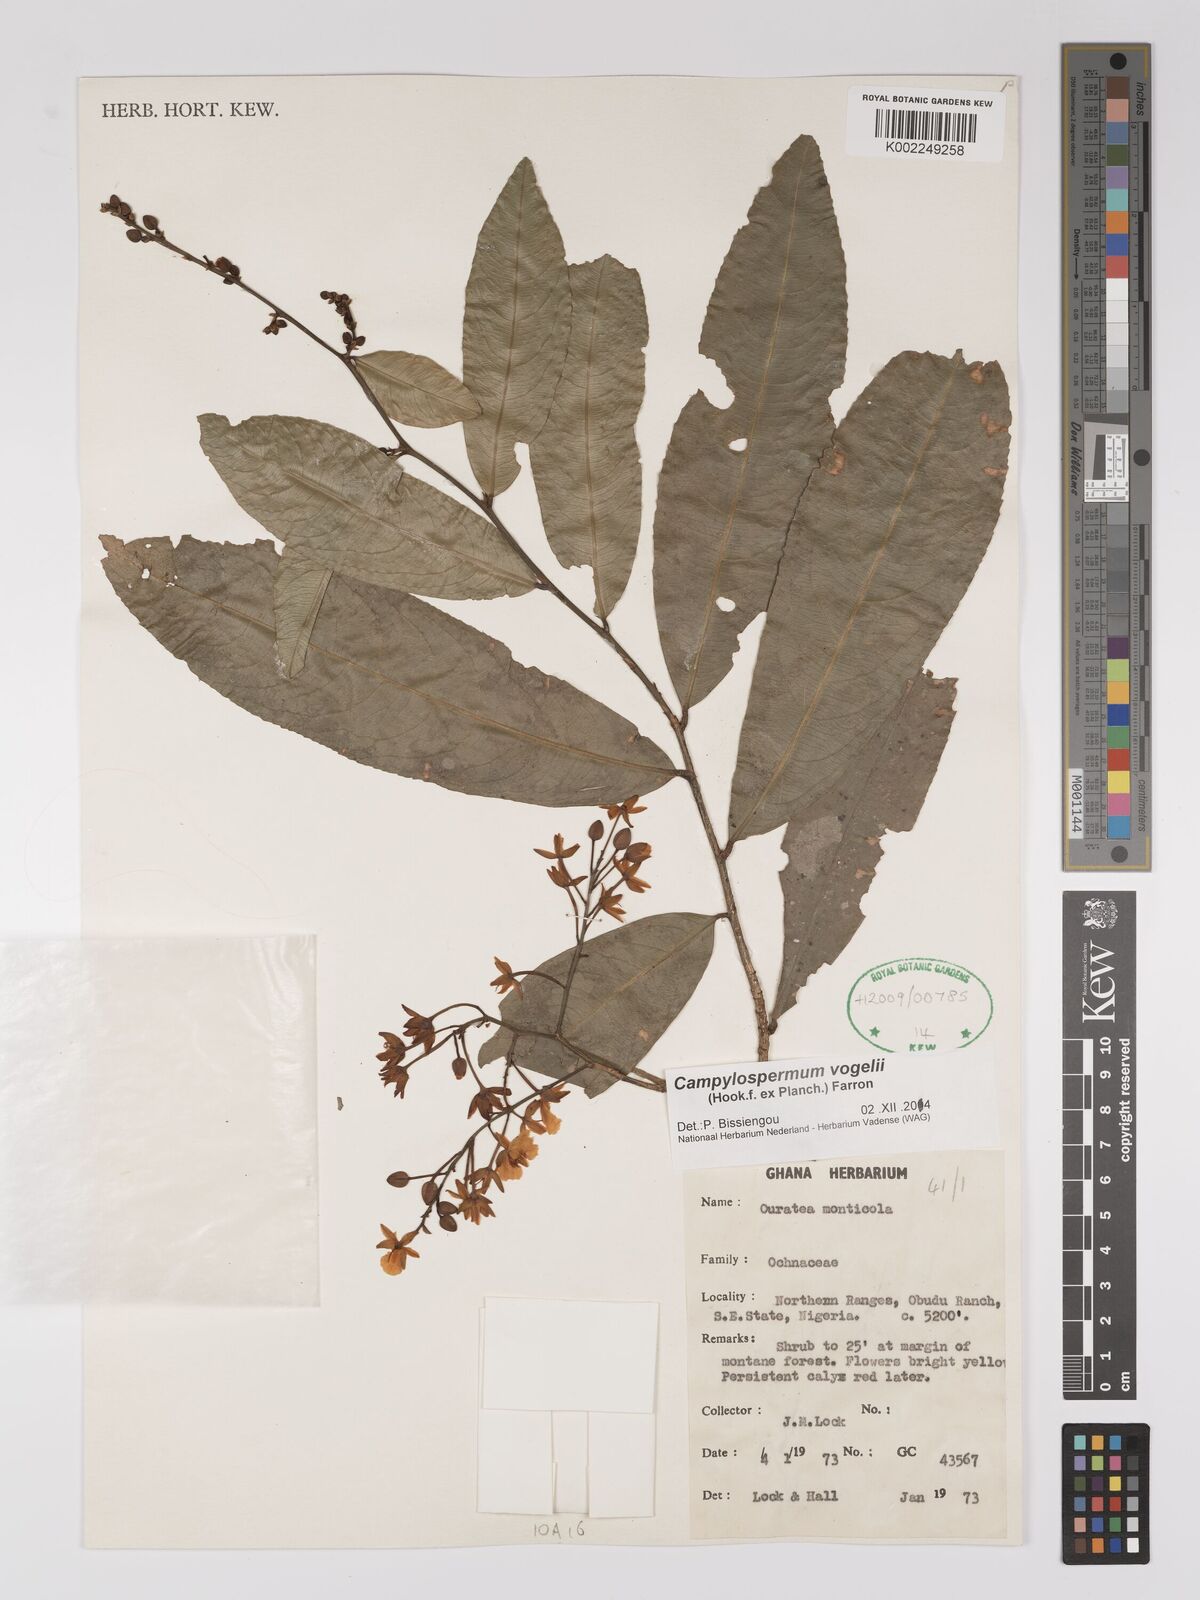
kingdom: Plantae
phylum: Tracheophyta
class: Magnoliopsida
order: Malpighiales
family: Ochnaceae
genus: Campylospermum
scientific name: Campylospermum vogelii
